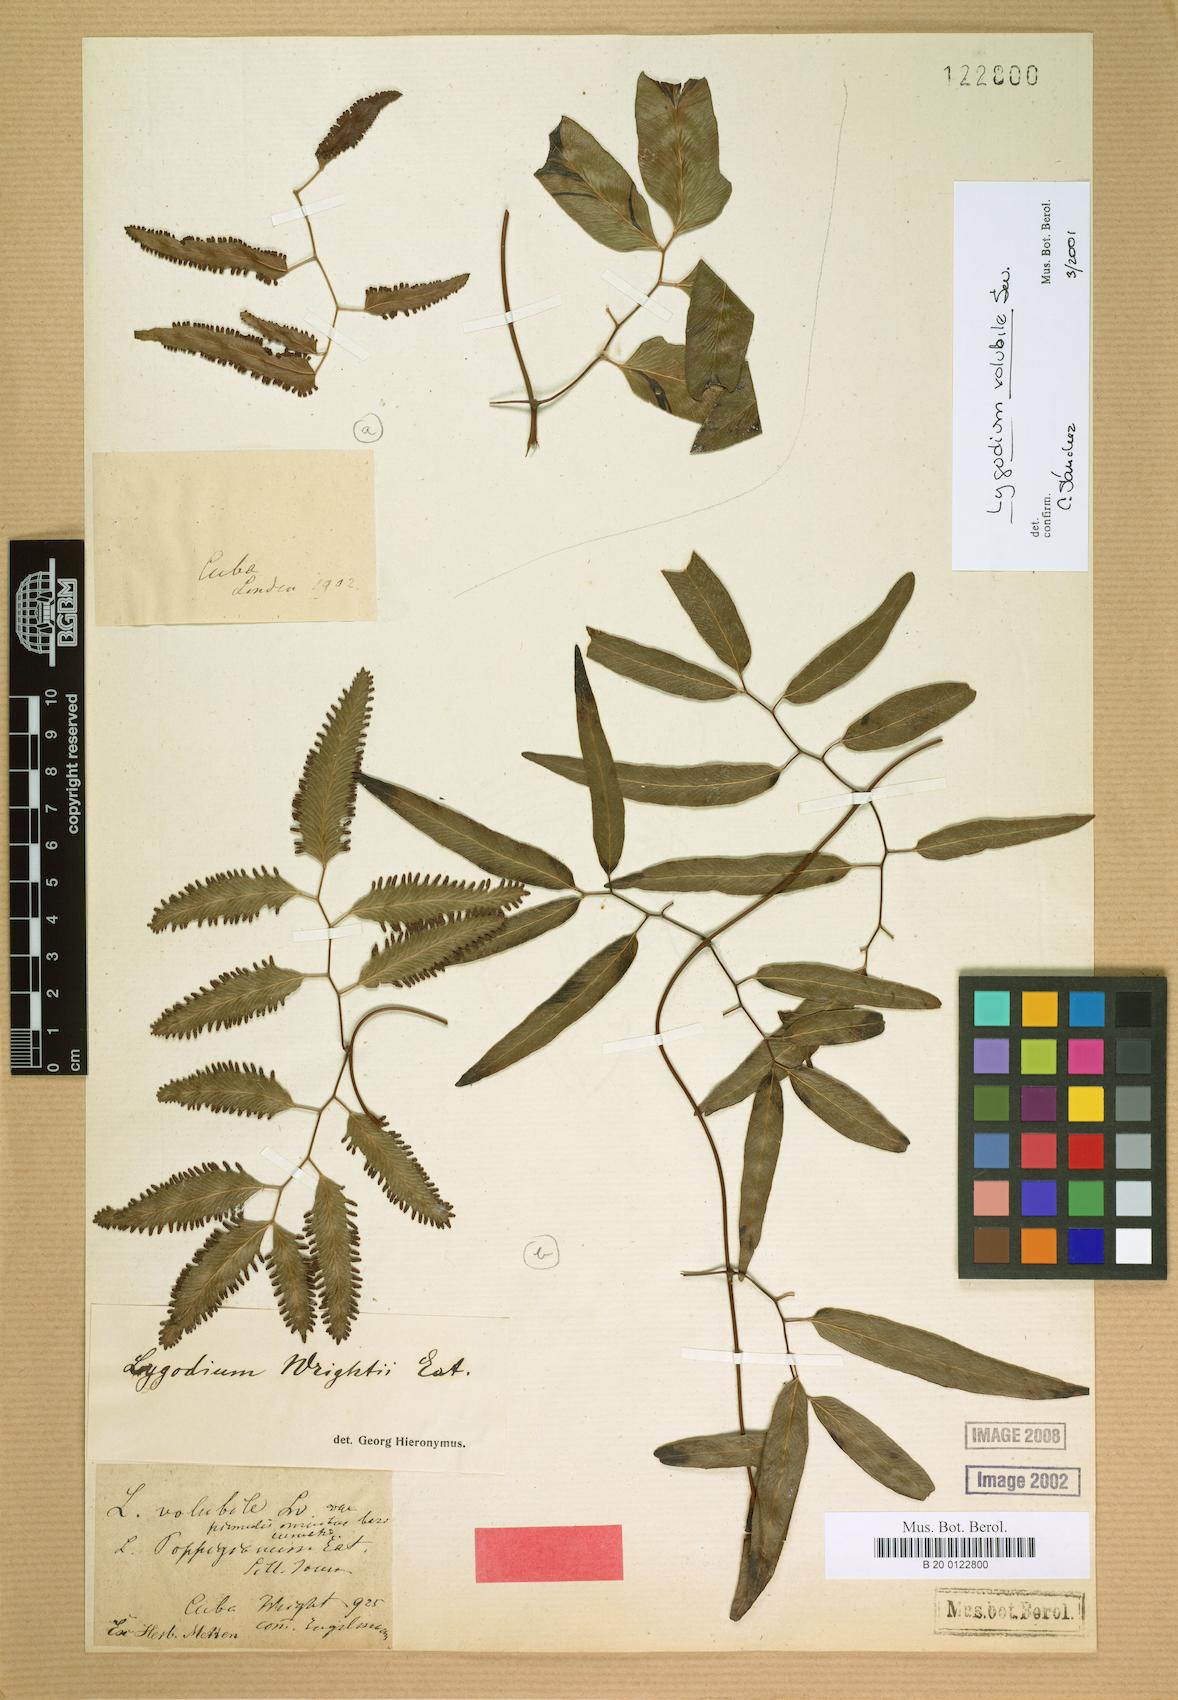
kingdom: Plantae
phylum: Tracheophyta
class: Polypodiopsida
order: Schizaeales
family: Lygodiaceae
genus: Lygodium
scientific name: Lygodium volubile
